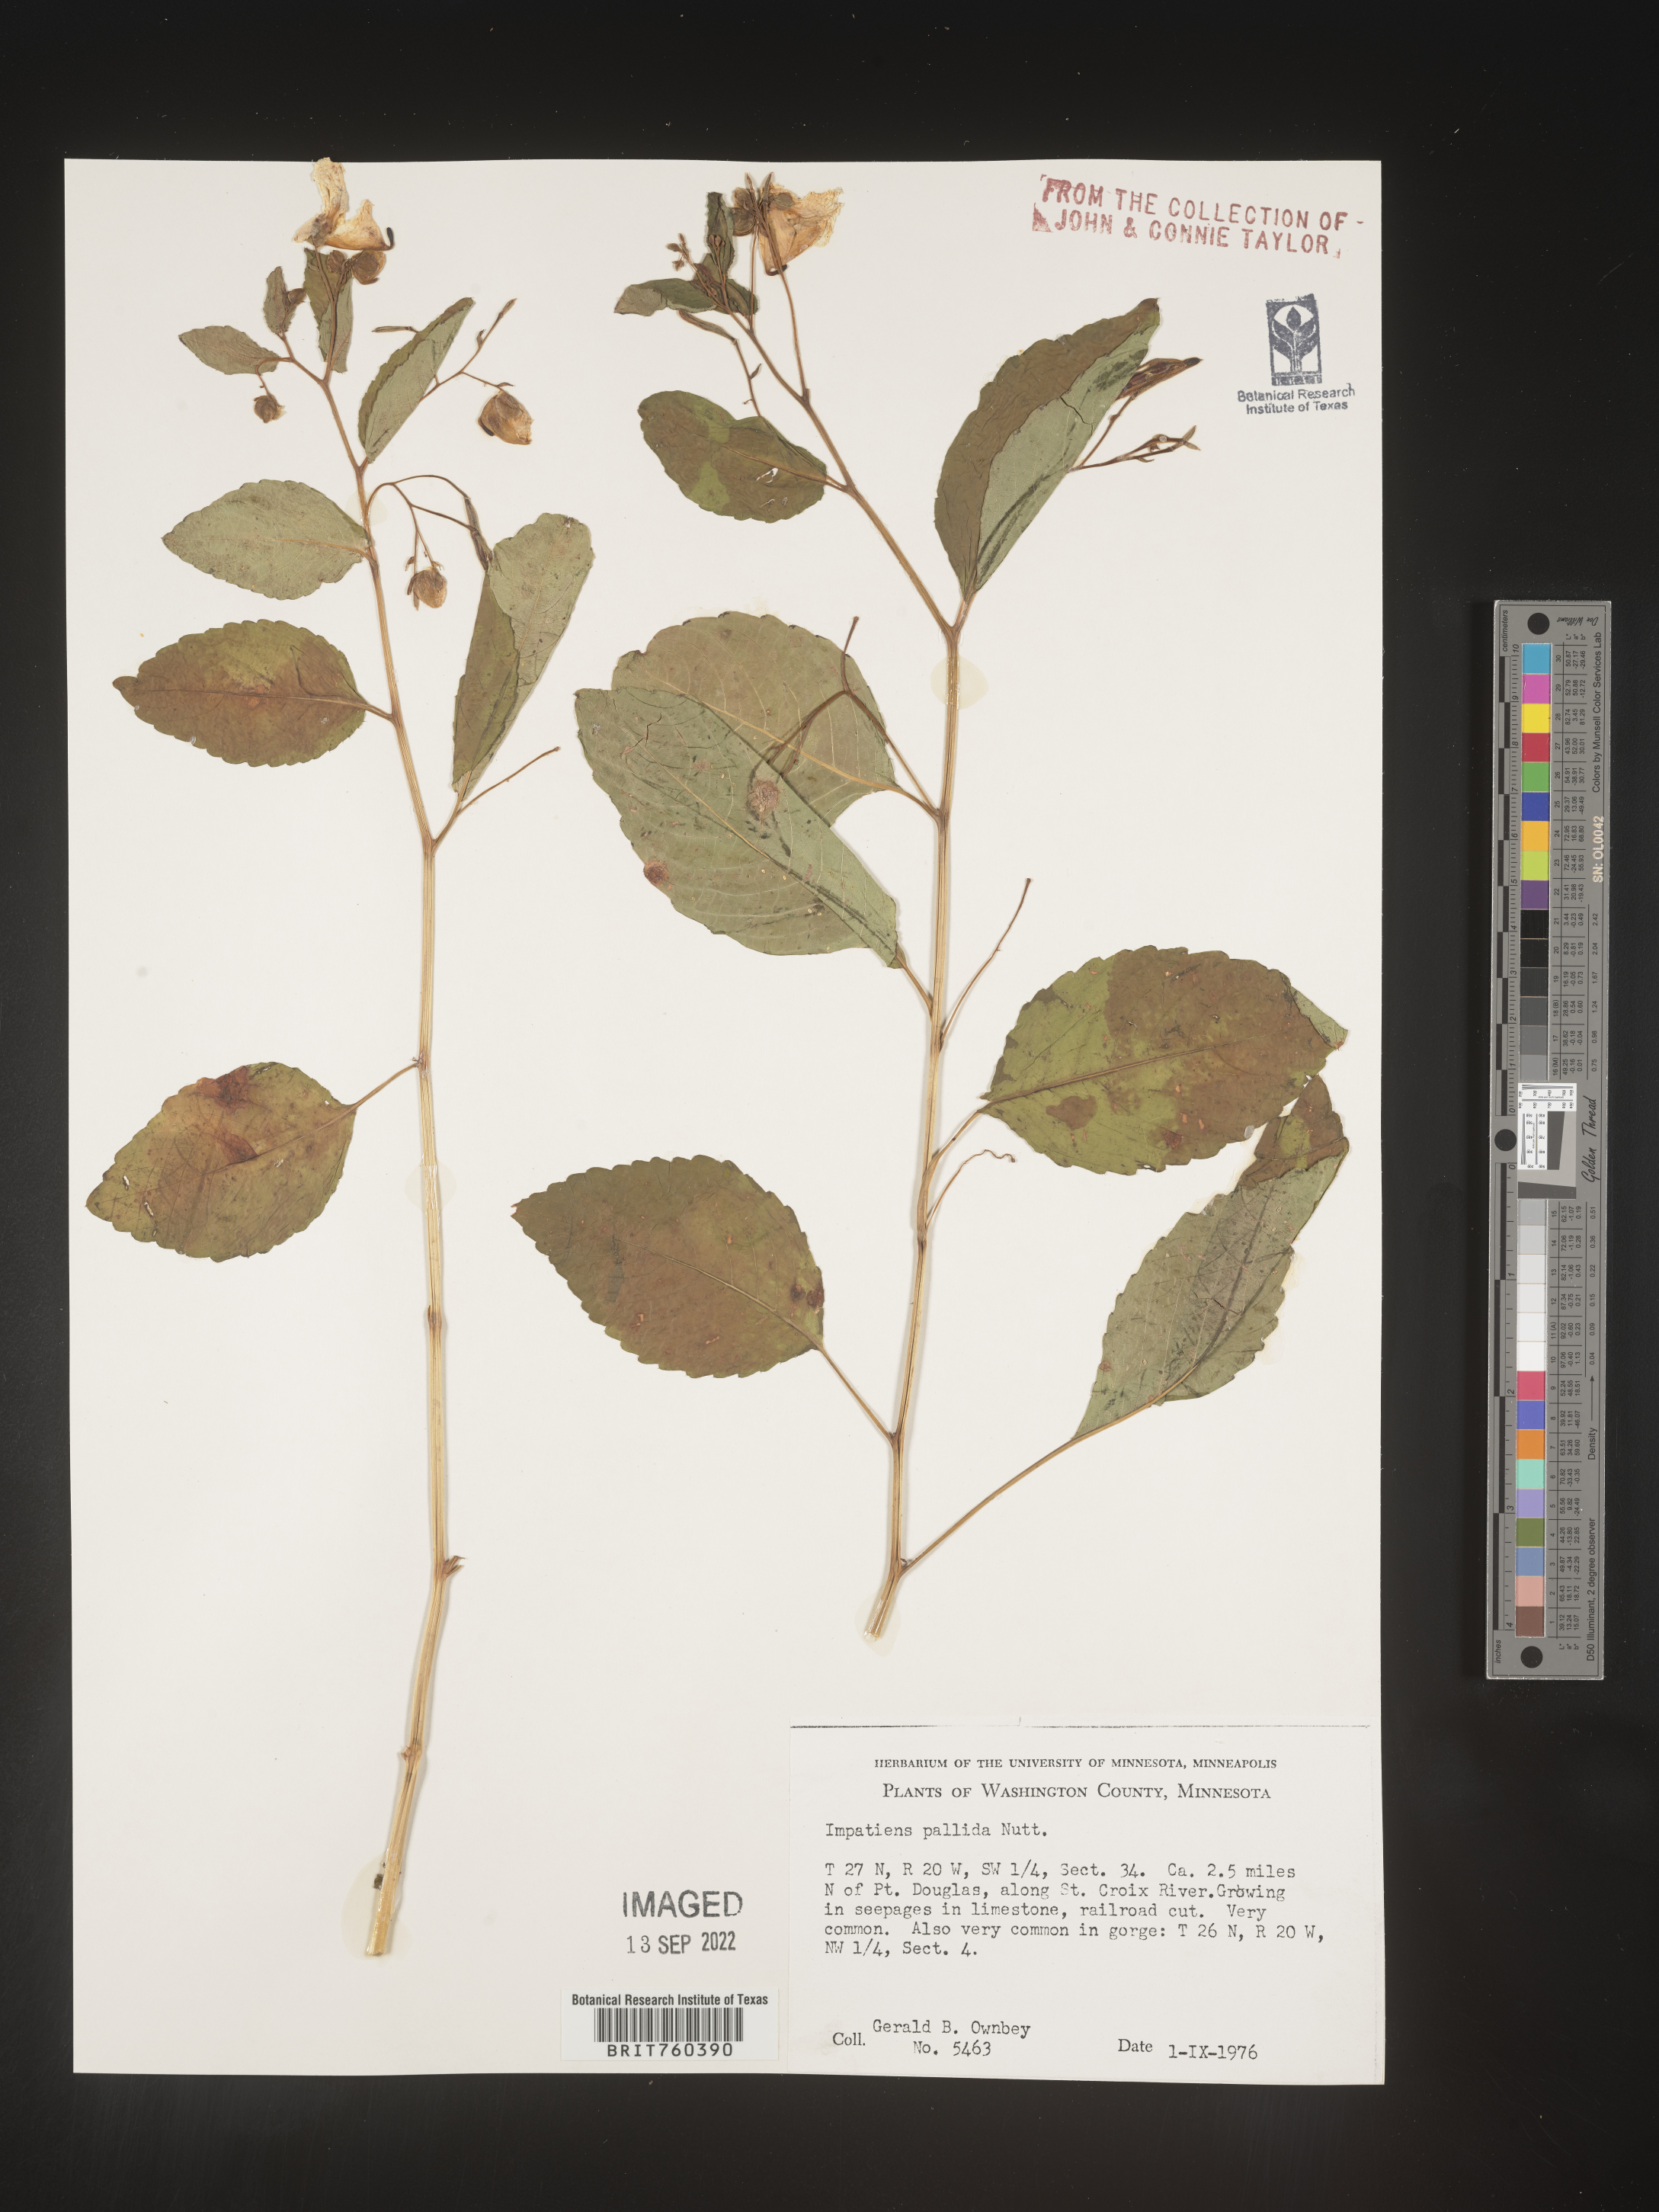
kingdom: Plantae
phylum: Tracheophyta
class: Magnoliopsida
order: Ericales
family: Balsaminaceae
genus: Impatiens
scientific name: Impatiens pallida
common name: Pale snapweed
